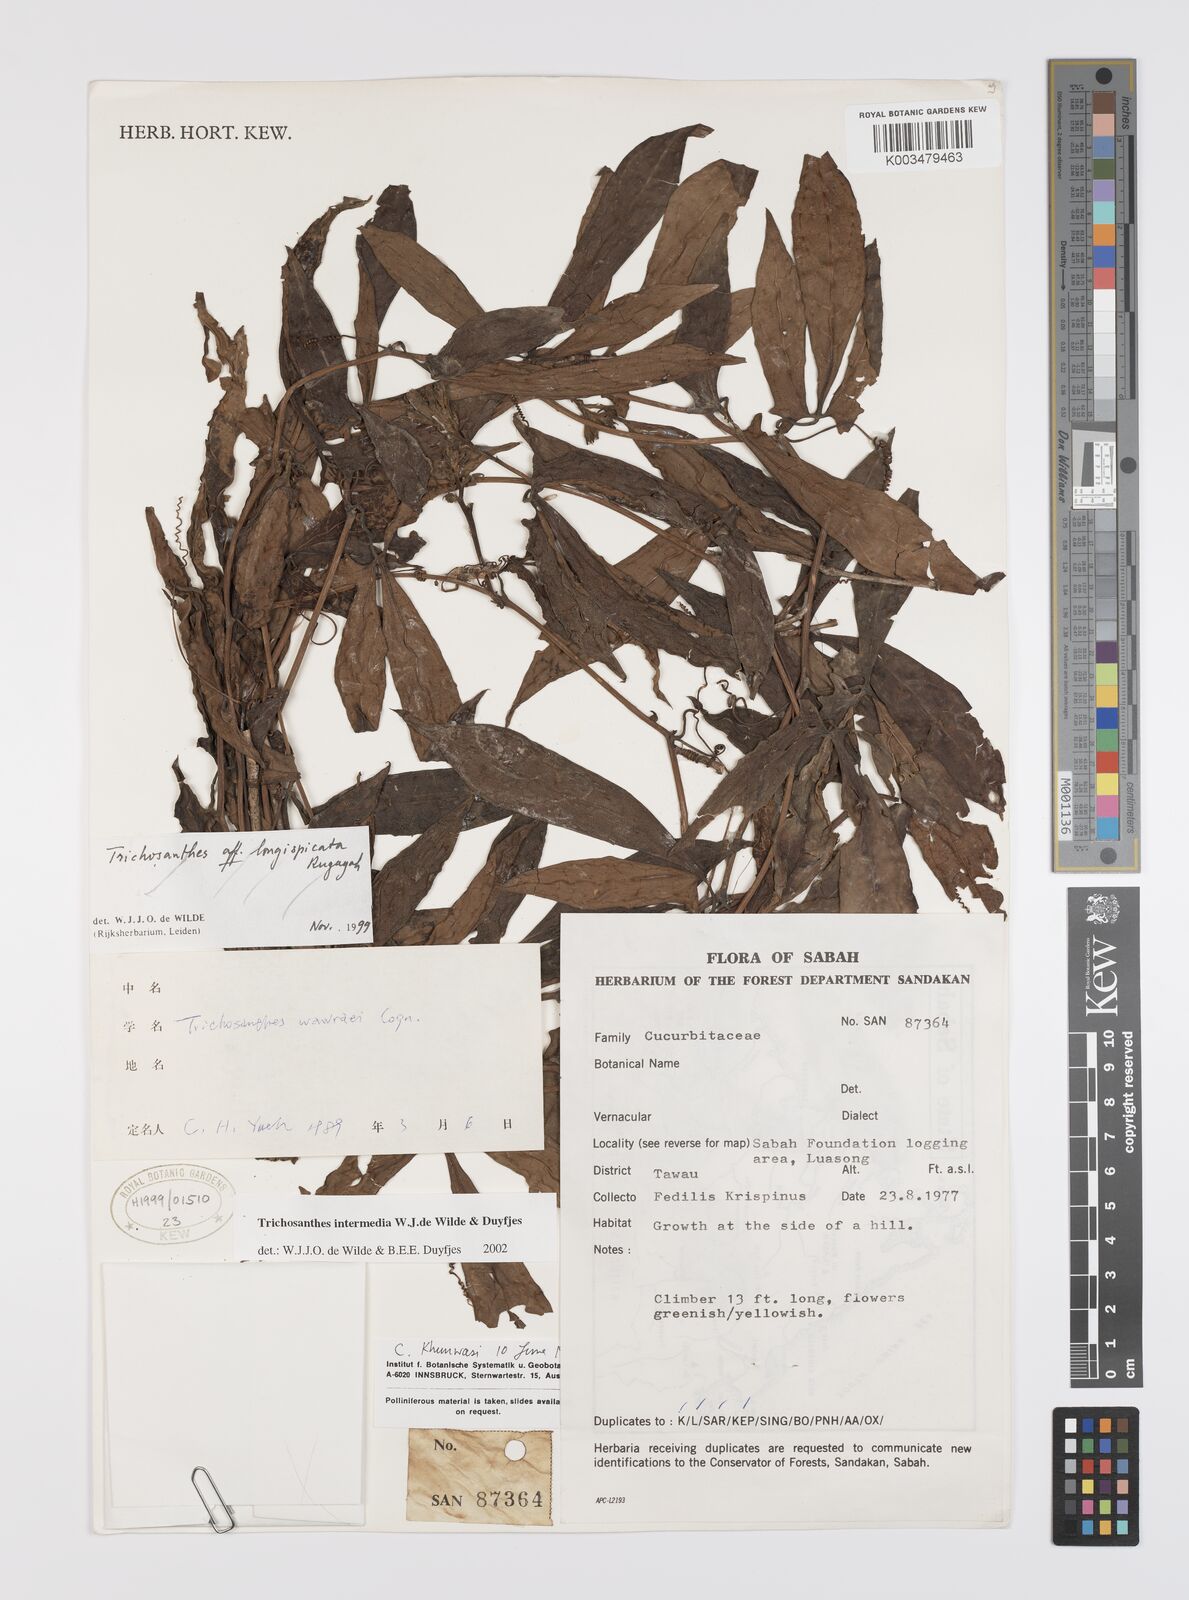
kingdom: Plantae
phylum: Tracheophyta
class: Magnoliopsida
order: Cucurbitales
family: Cucurbitaceae
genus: Trichosanthes
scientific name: Trichosanthes intermedia
